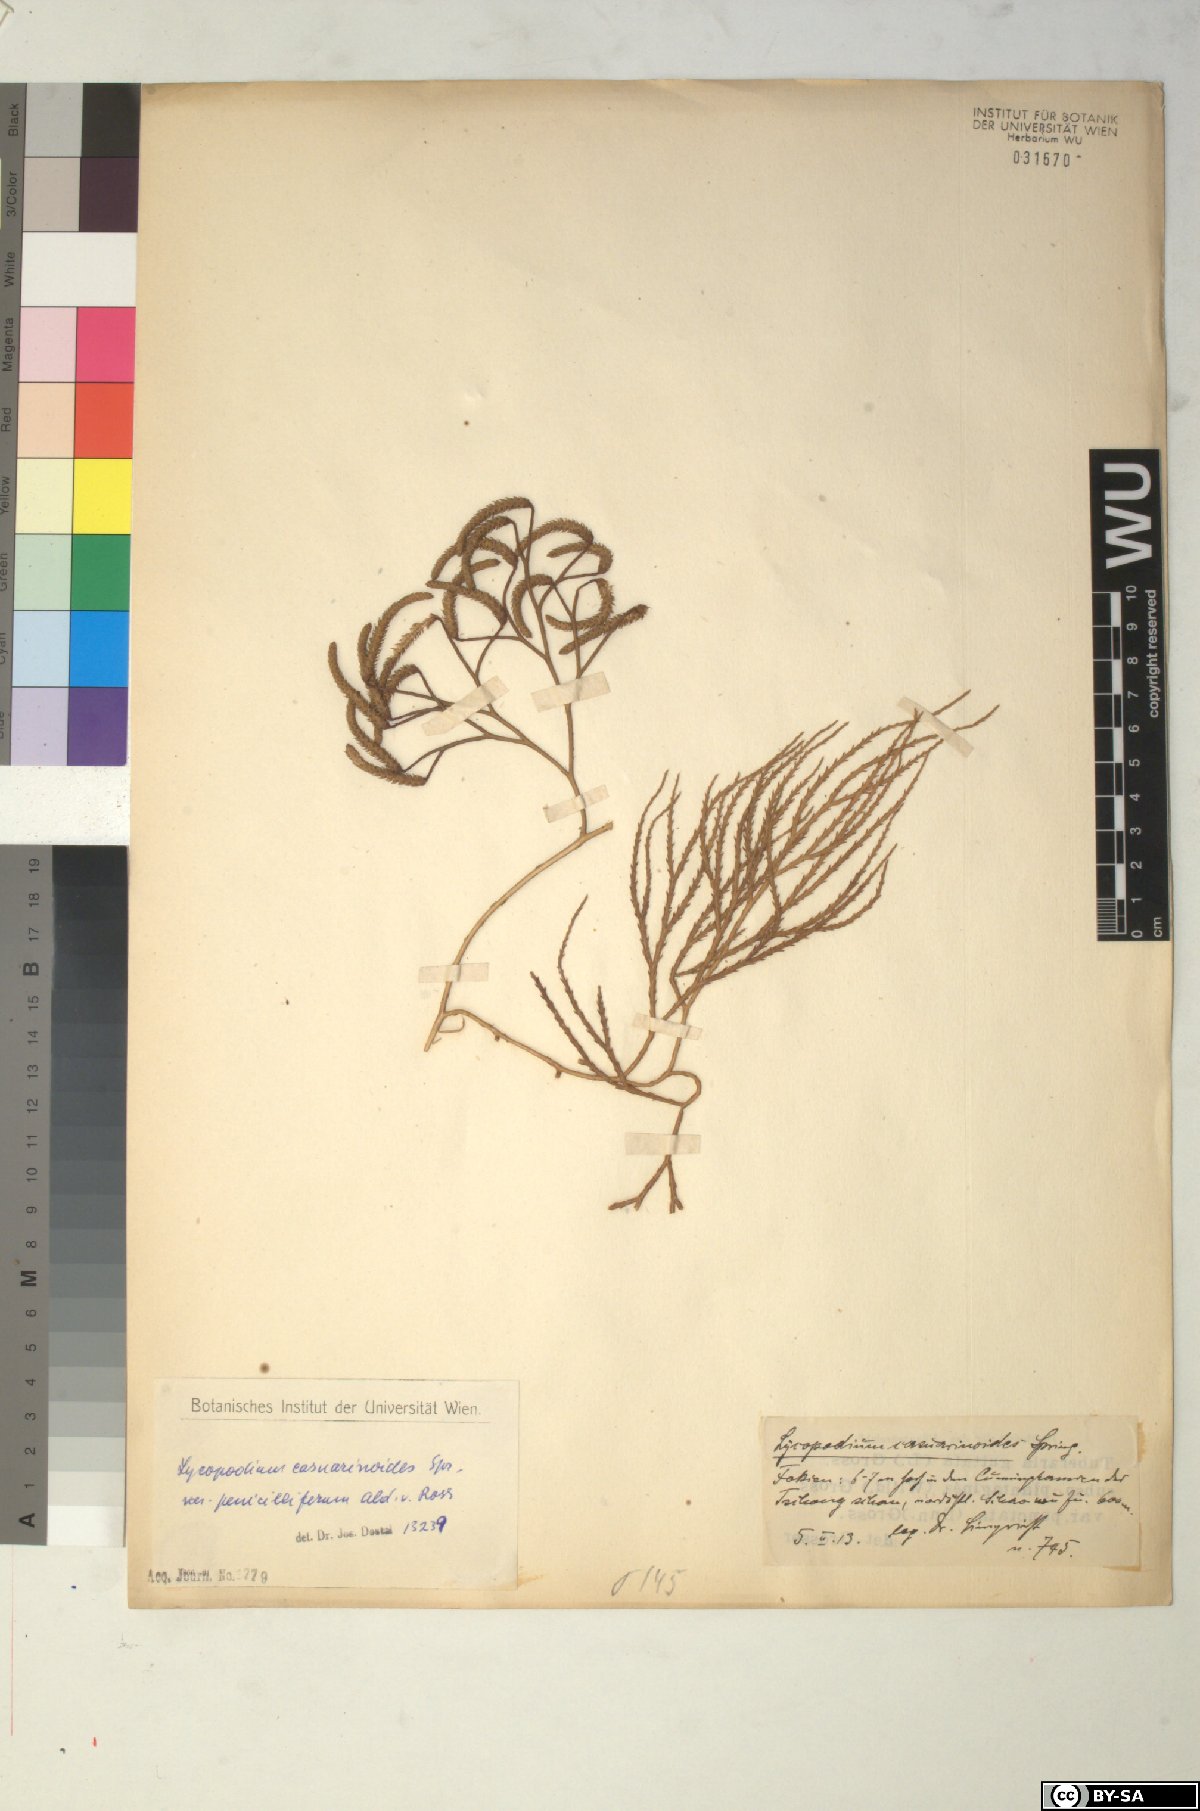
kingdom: Plantae
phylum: Tracheophyta
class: Lycopodiopsida
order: Lycopodiales
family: Lycopodiaceae
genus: Lycopodiastrum
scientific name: Lycopodiastrum casuarinoides
